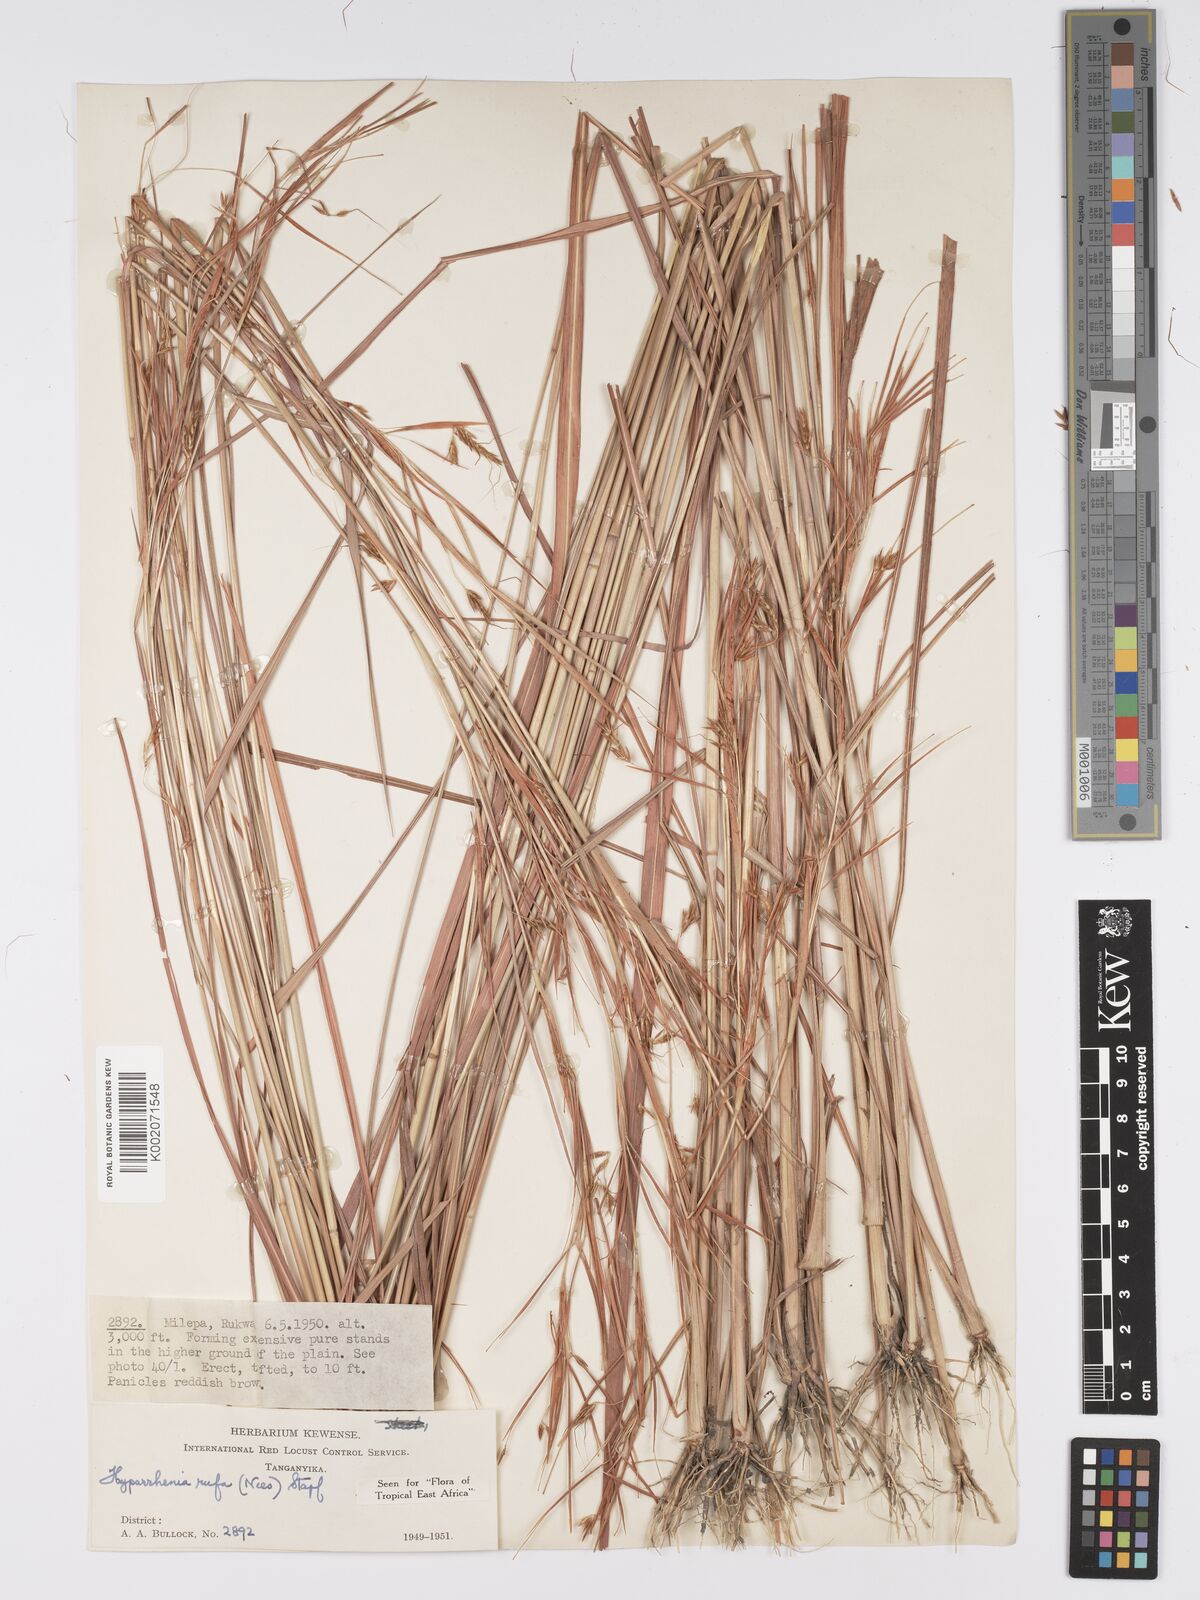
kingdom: Plantae
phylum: Tracheophyta
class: Liliopsida
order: Poales
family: Poaceae
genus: Hyparrhenia
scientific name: Hyparrhenia rufa
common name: Jaraguagrass
